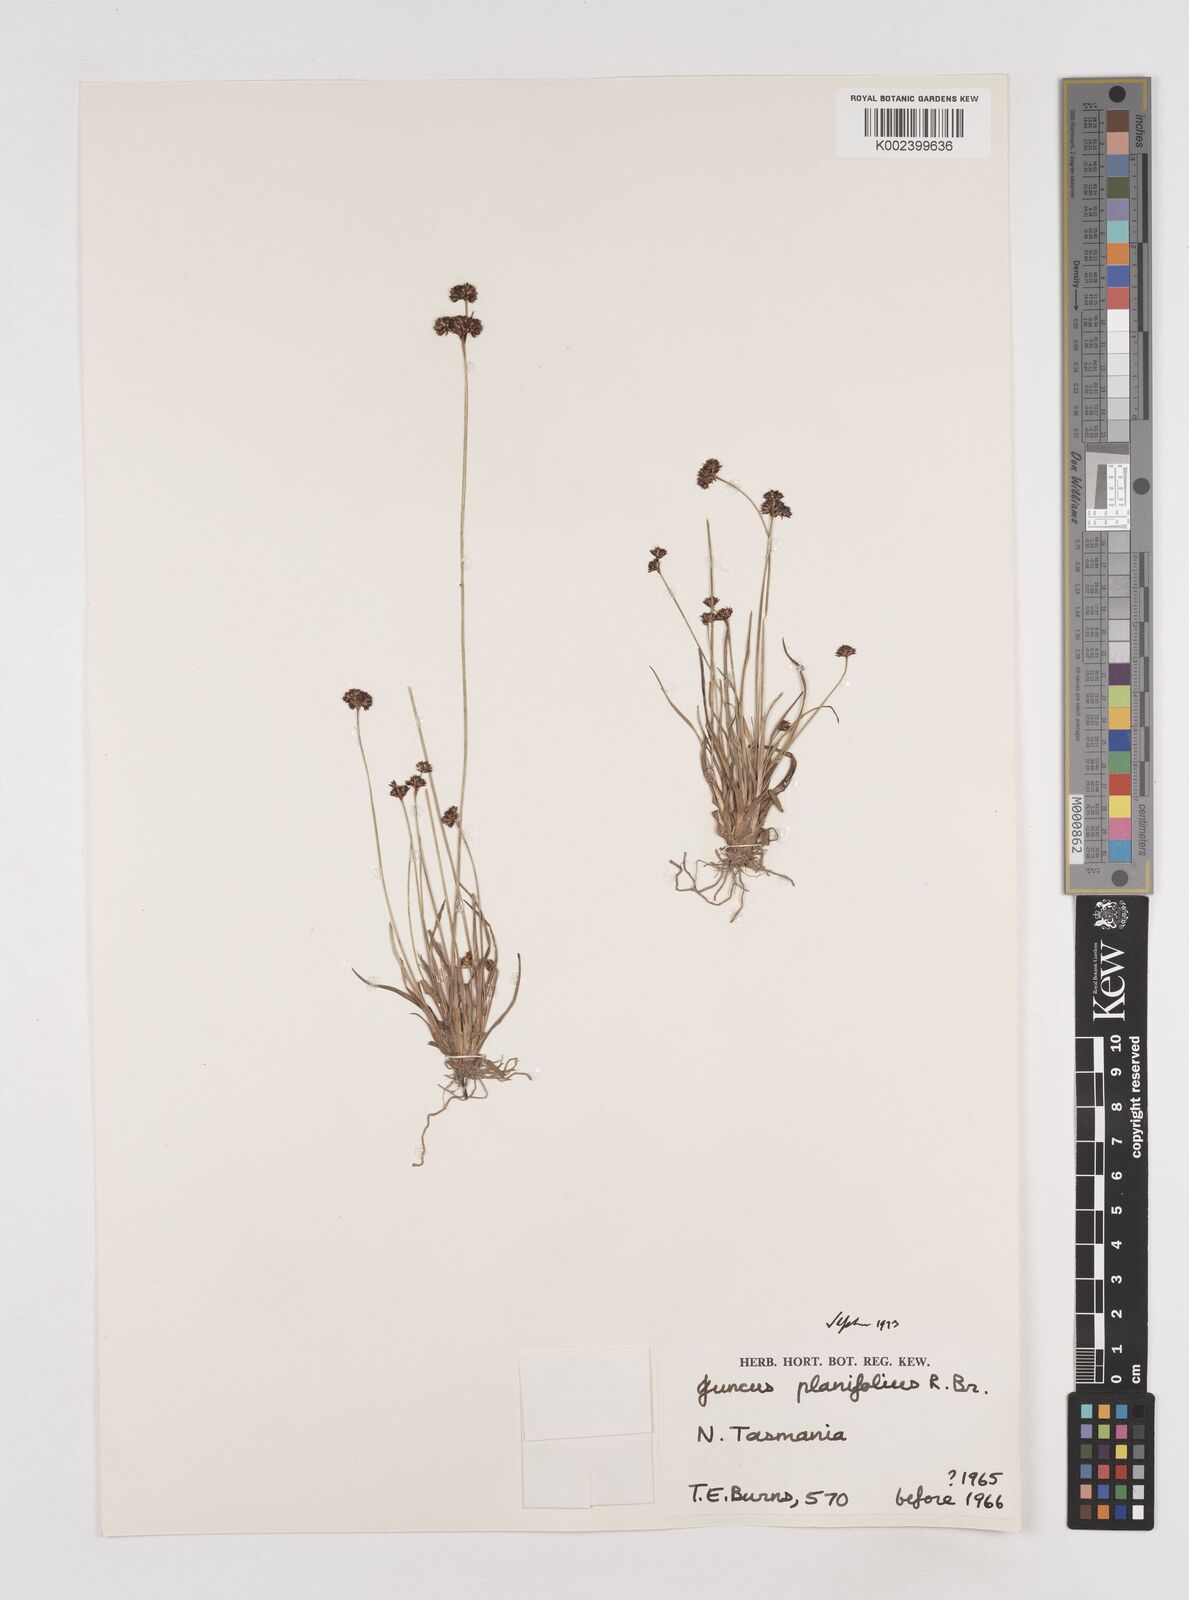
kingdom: Plantae
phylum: Tracheophyta
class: Liliopsida
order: Poales
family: Juncaceae
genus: Juncus
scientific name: Juncus planifolius
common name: Broadleaf rush
